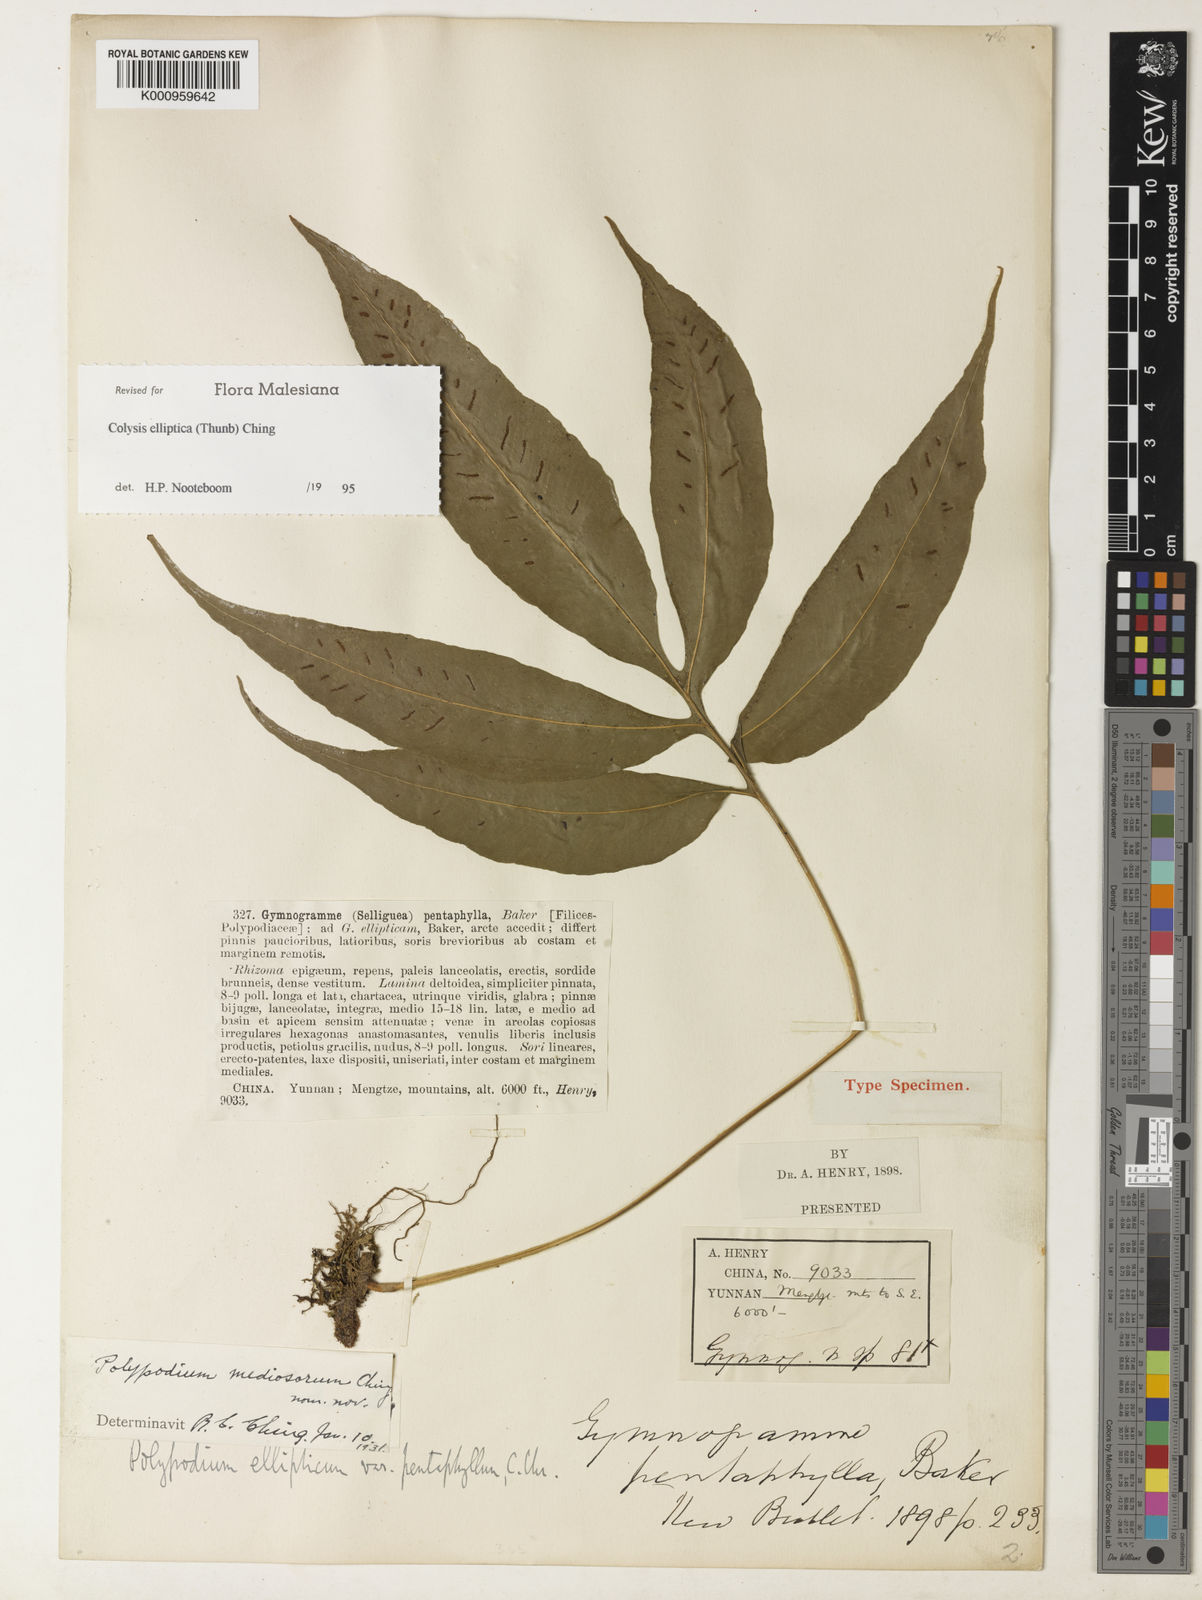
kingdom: Plantae
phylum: Tracheophyta
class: Polypodiopsida
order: Polypodiales
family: Polypodiaceae
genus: Leptochilus
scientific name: Leptochilus ellipticus
